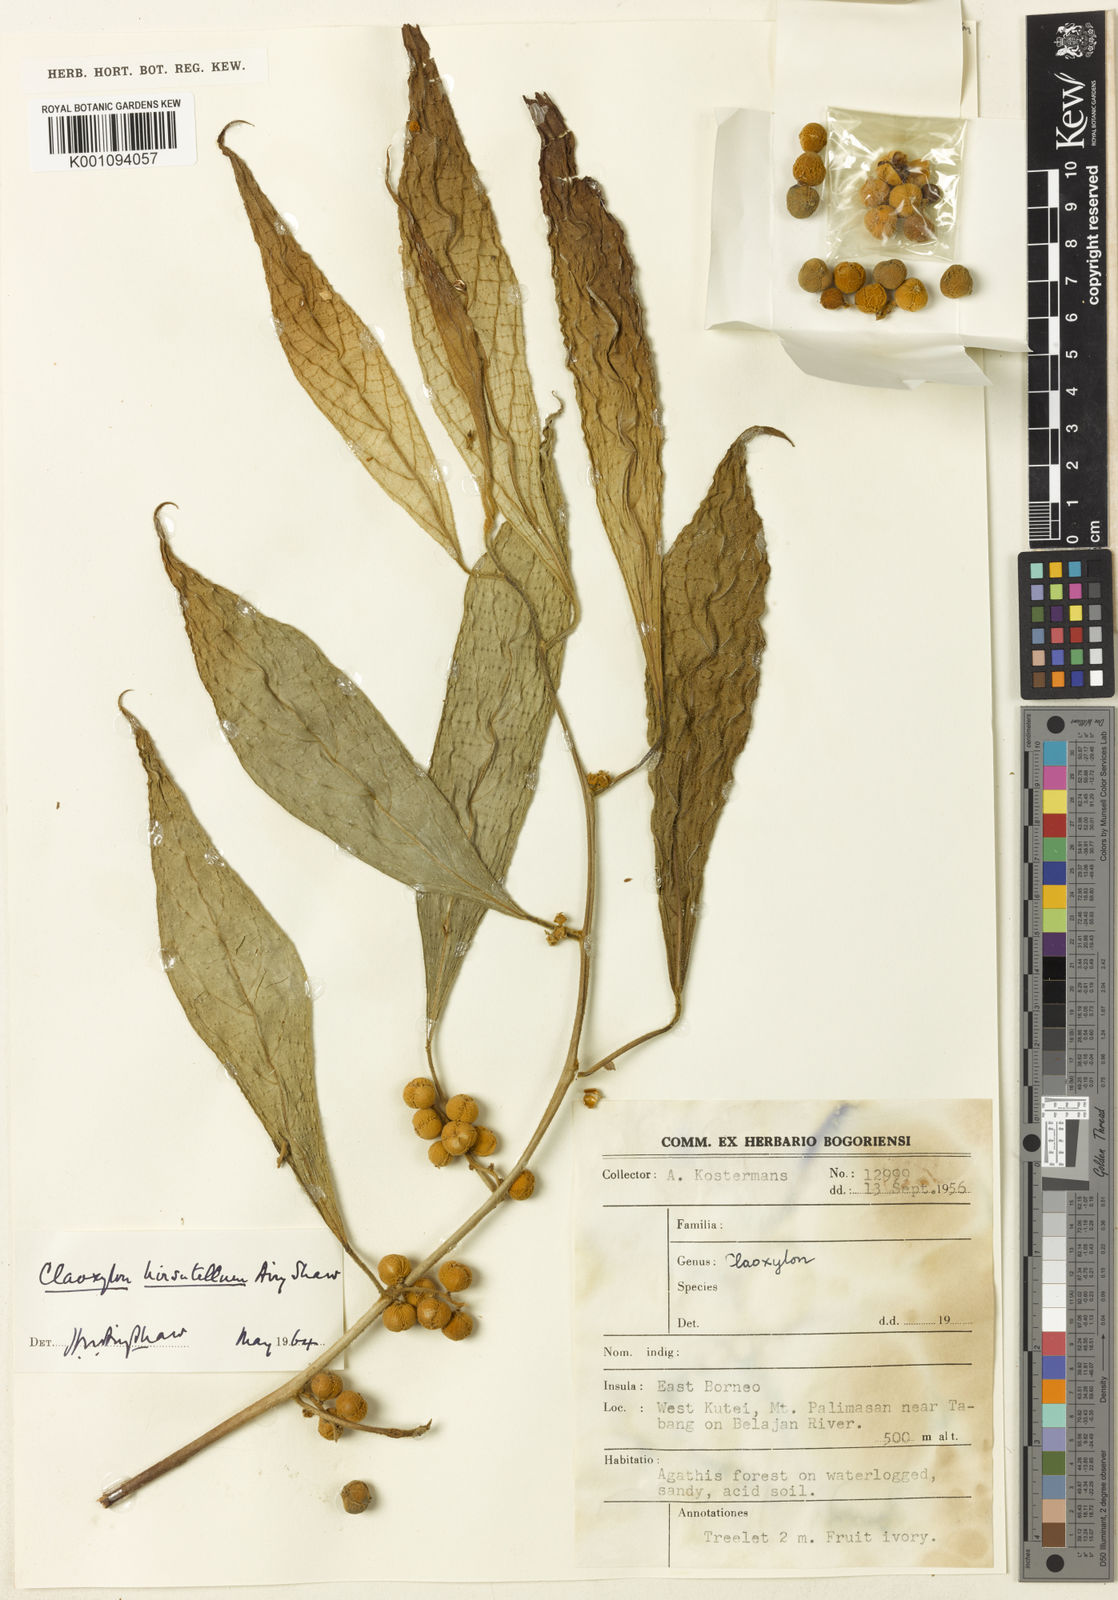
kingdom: Plantae
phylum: Tracheophyta
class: Magnoliopsida
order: Malpighiales
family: Euphorbiaceae
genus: Claoxylon
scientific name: Claoxylon hirsutellum
